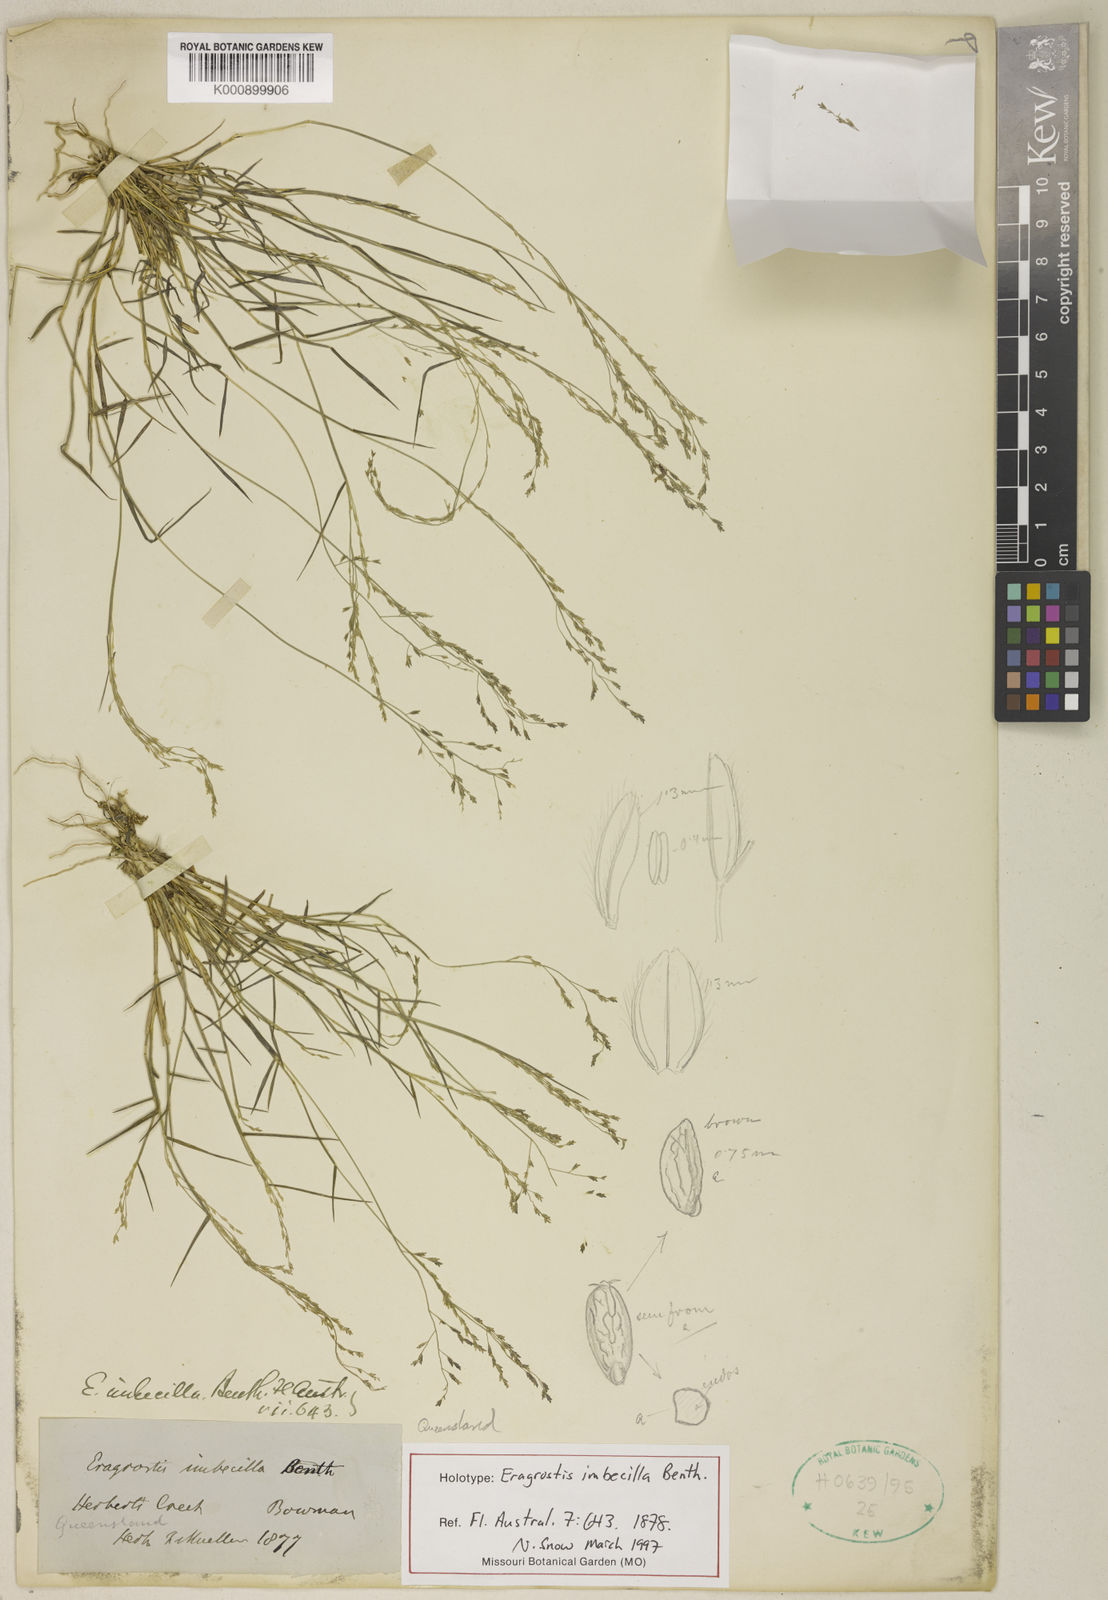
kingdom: Plantae
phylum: Tracheophyta
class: Liliopsida
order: Poales
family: Poaceae
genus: Leptochloa
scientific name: Leptochloa asthenes
